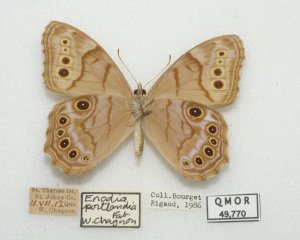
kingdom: Animalia
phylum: Arthropoda
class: Insecta
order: Lepidoptera
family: Nymphalidae
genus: Lethe
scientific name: Lethe anthedon
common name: Northern Pearly-Eye
